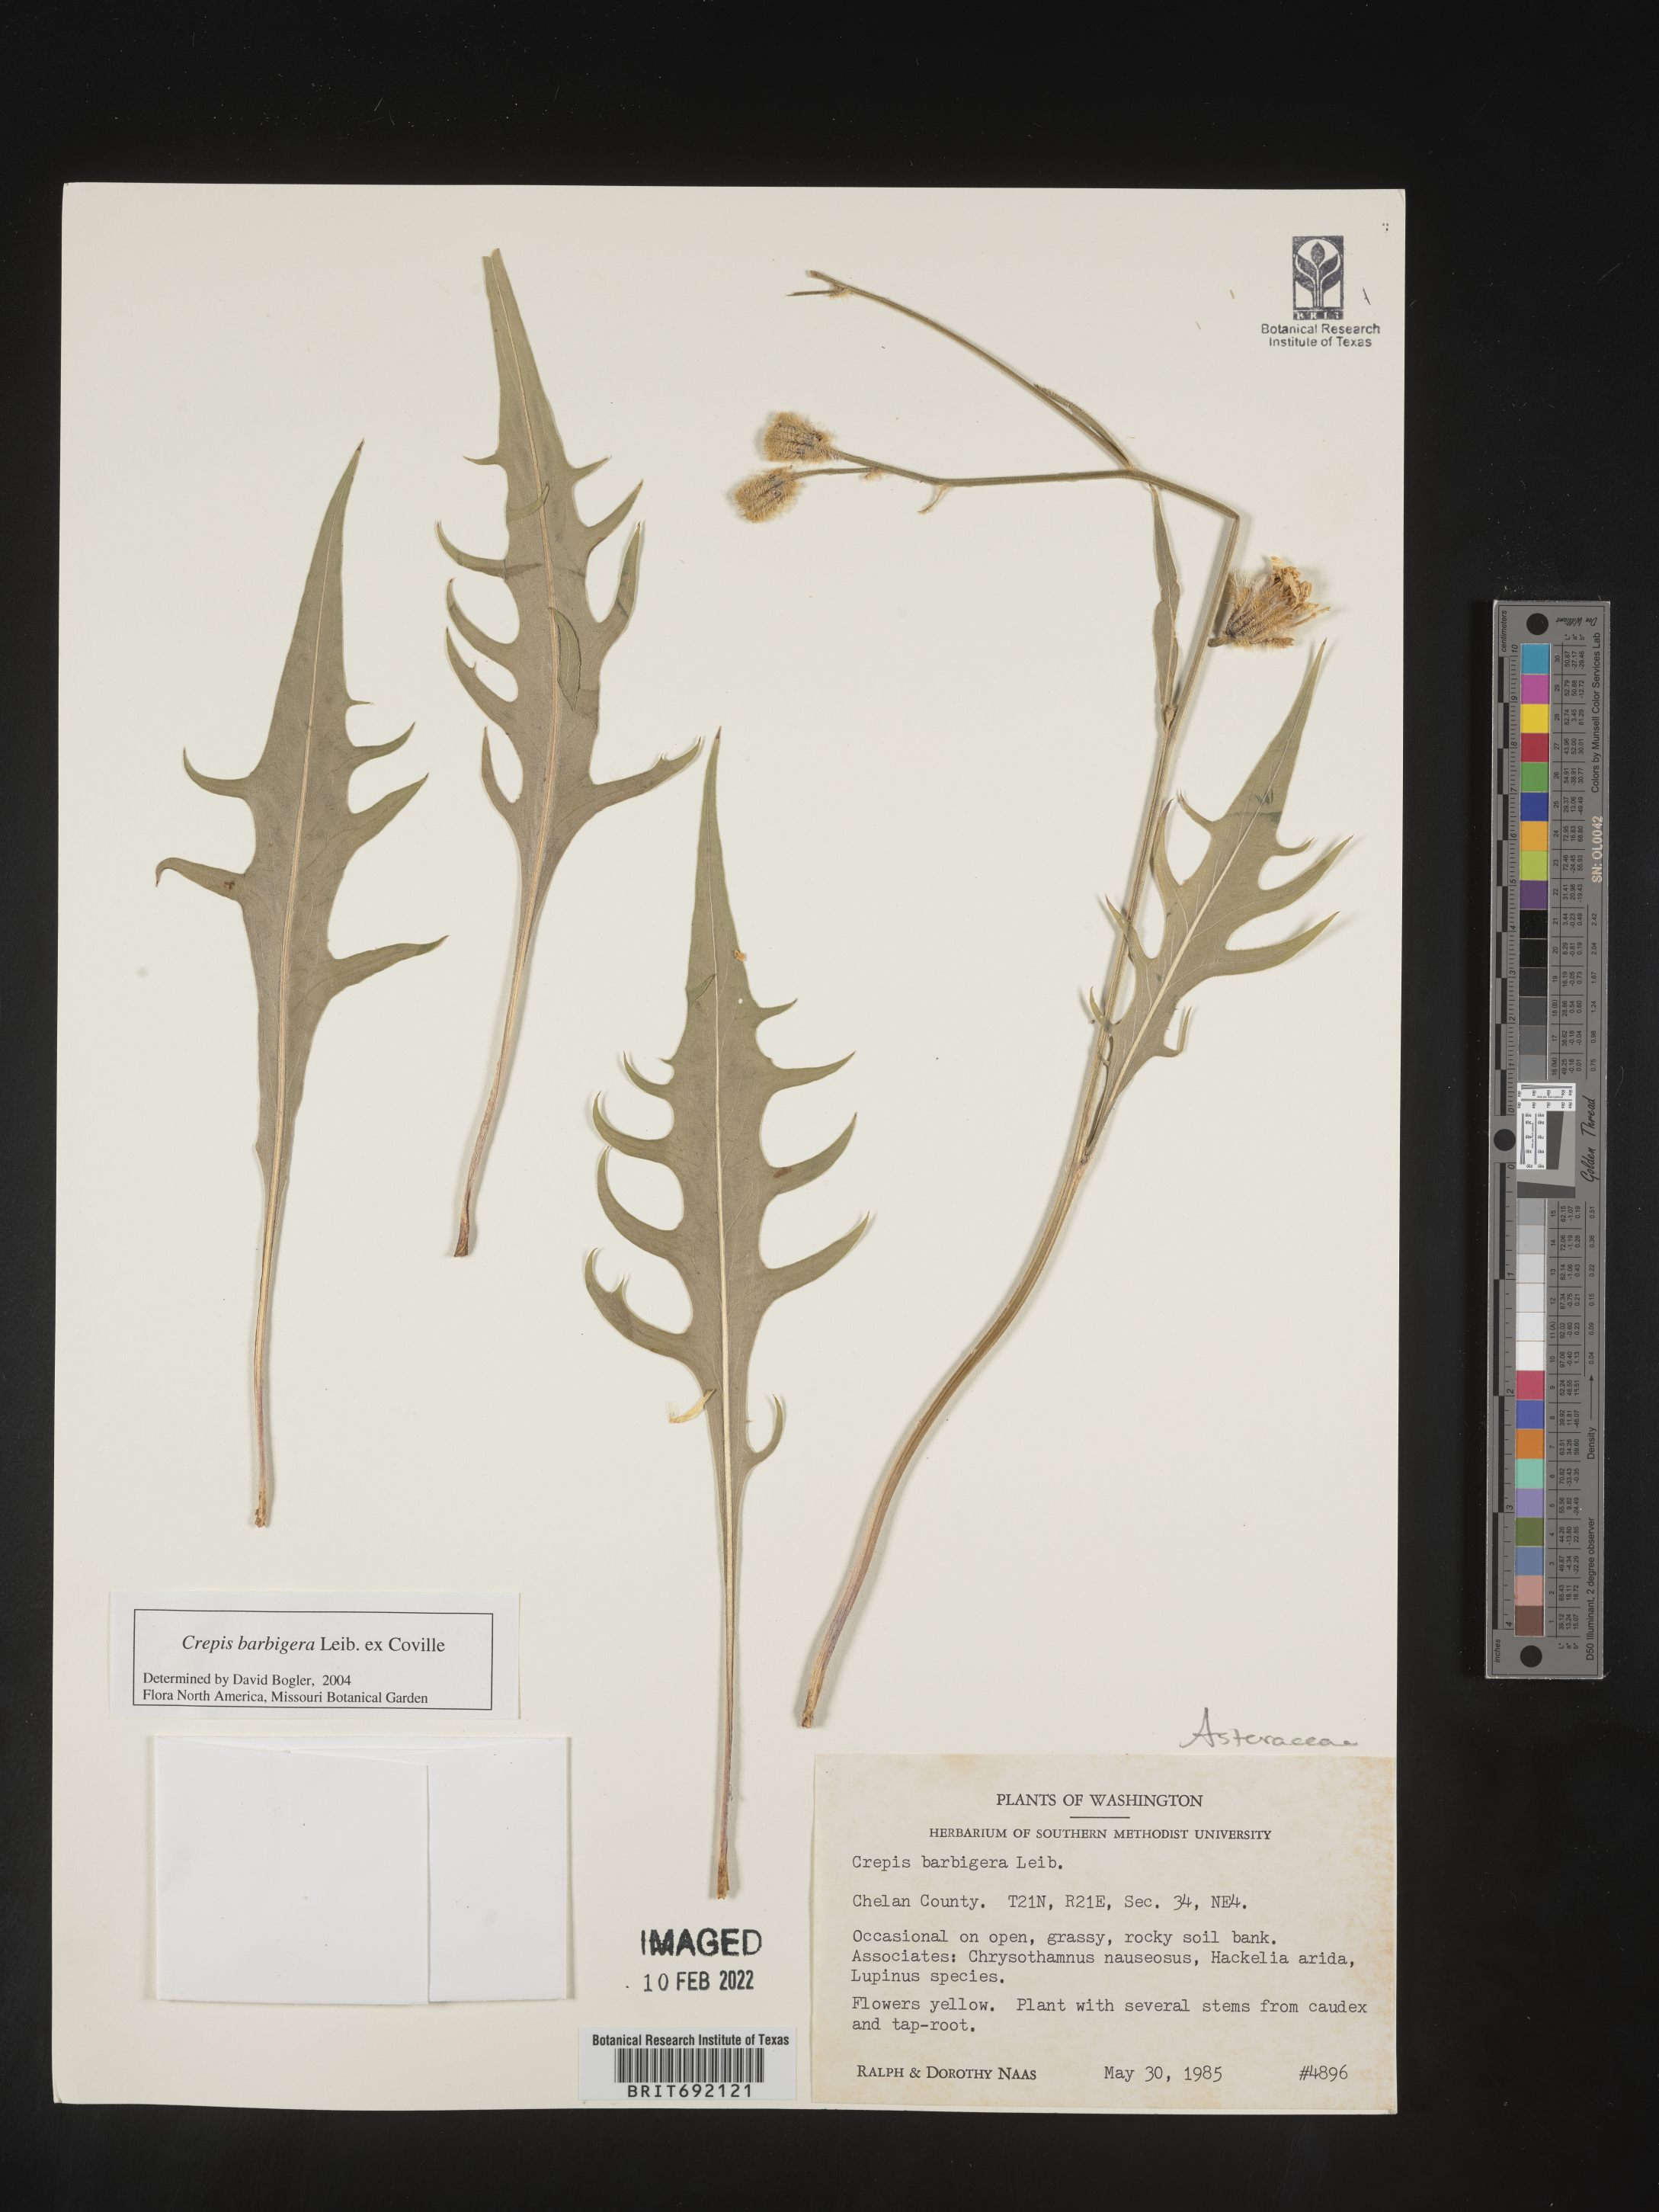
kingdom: Plantae
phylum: Tracheophyta
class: Magnoliopsida
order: Asterales
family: Asteraceae
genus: Crepis
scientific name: Crepis
